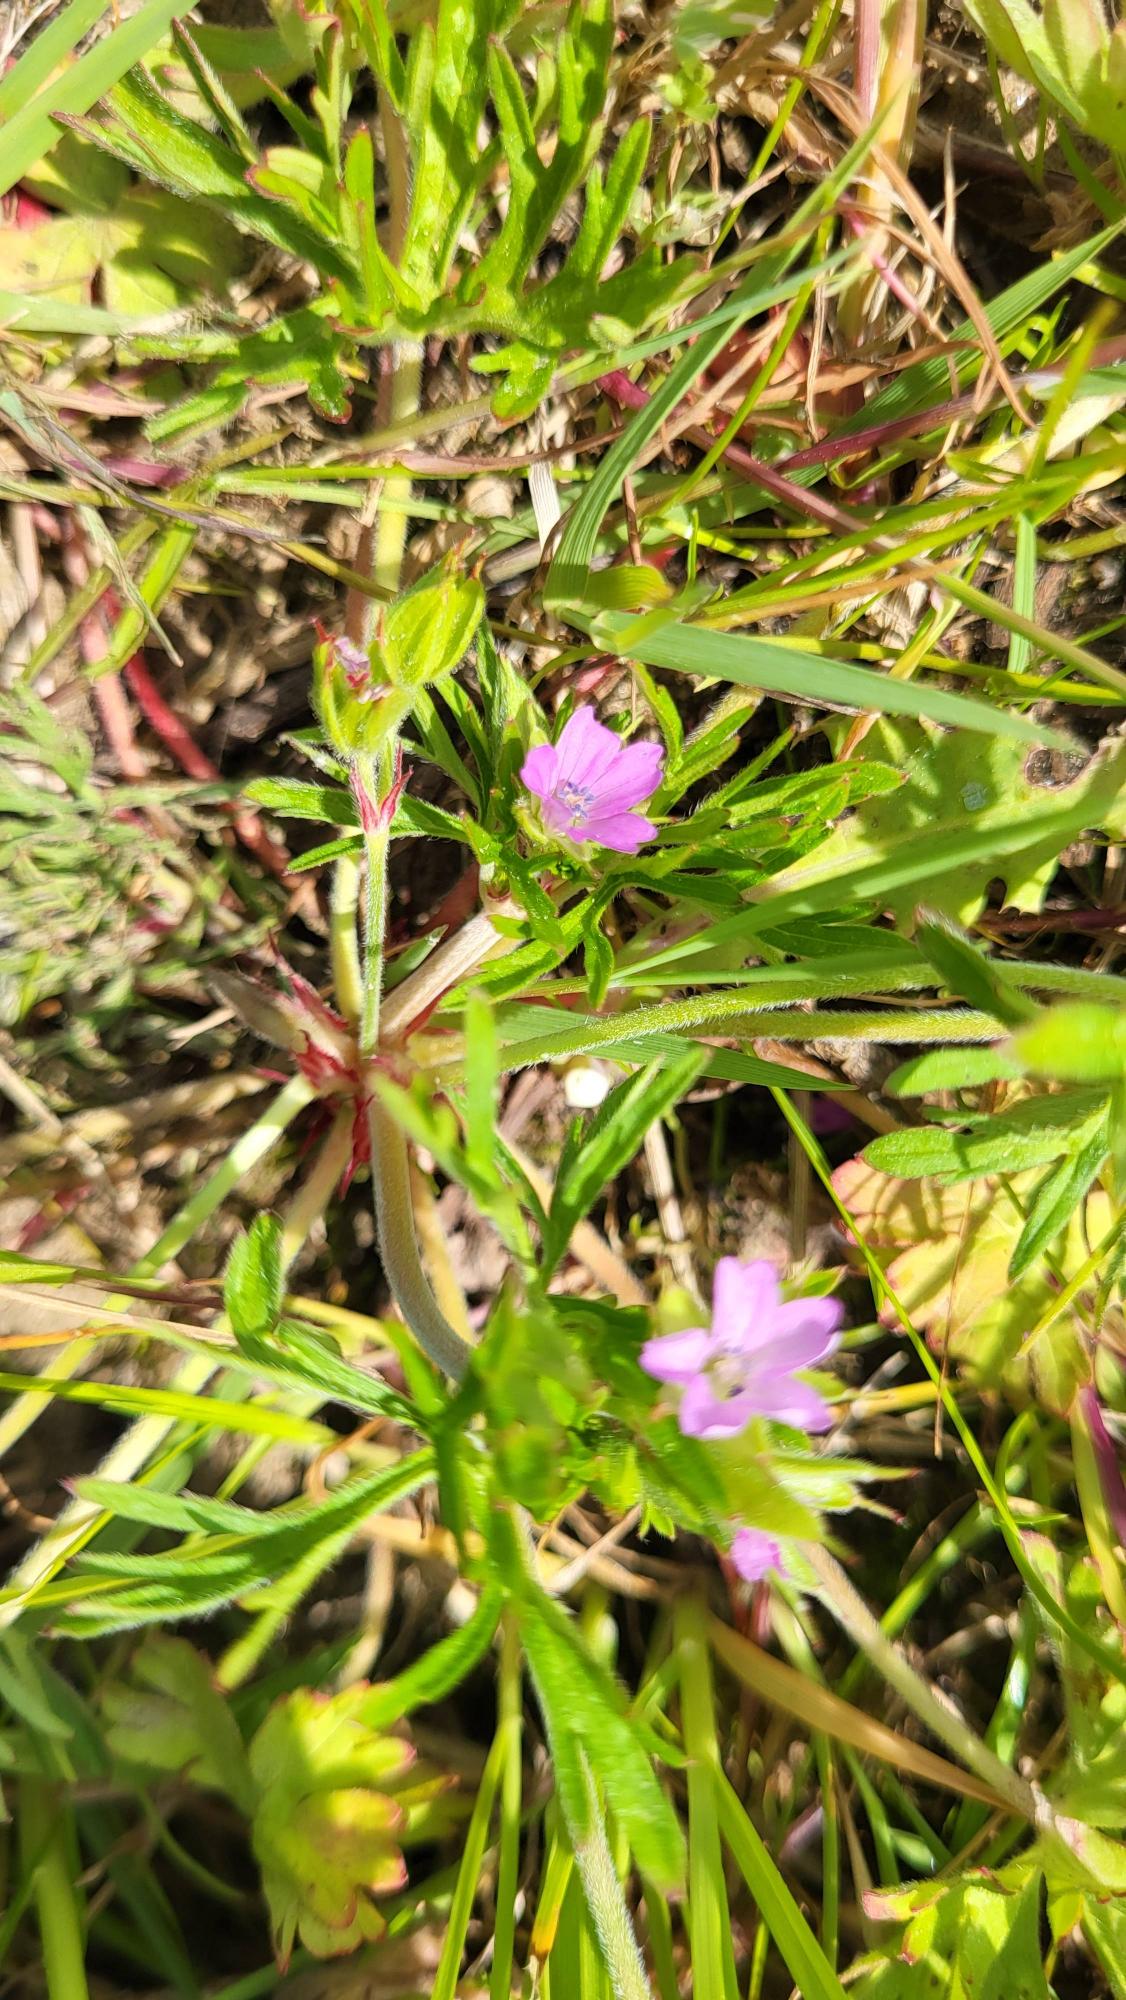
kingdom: Plantae
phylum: Tracheophyta
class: Magnoliopsida
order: Geraniales
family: Geraniaceae
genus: Geranium
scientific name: Geranium dissectum
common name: Kløftet storkenæb
